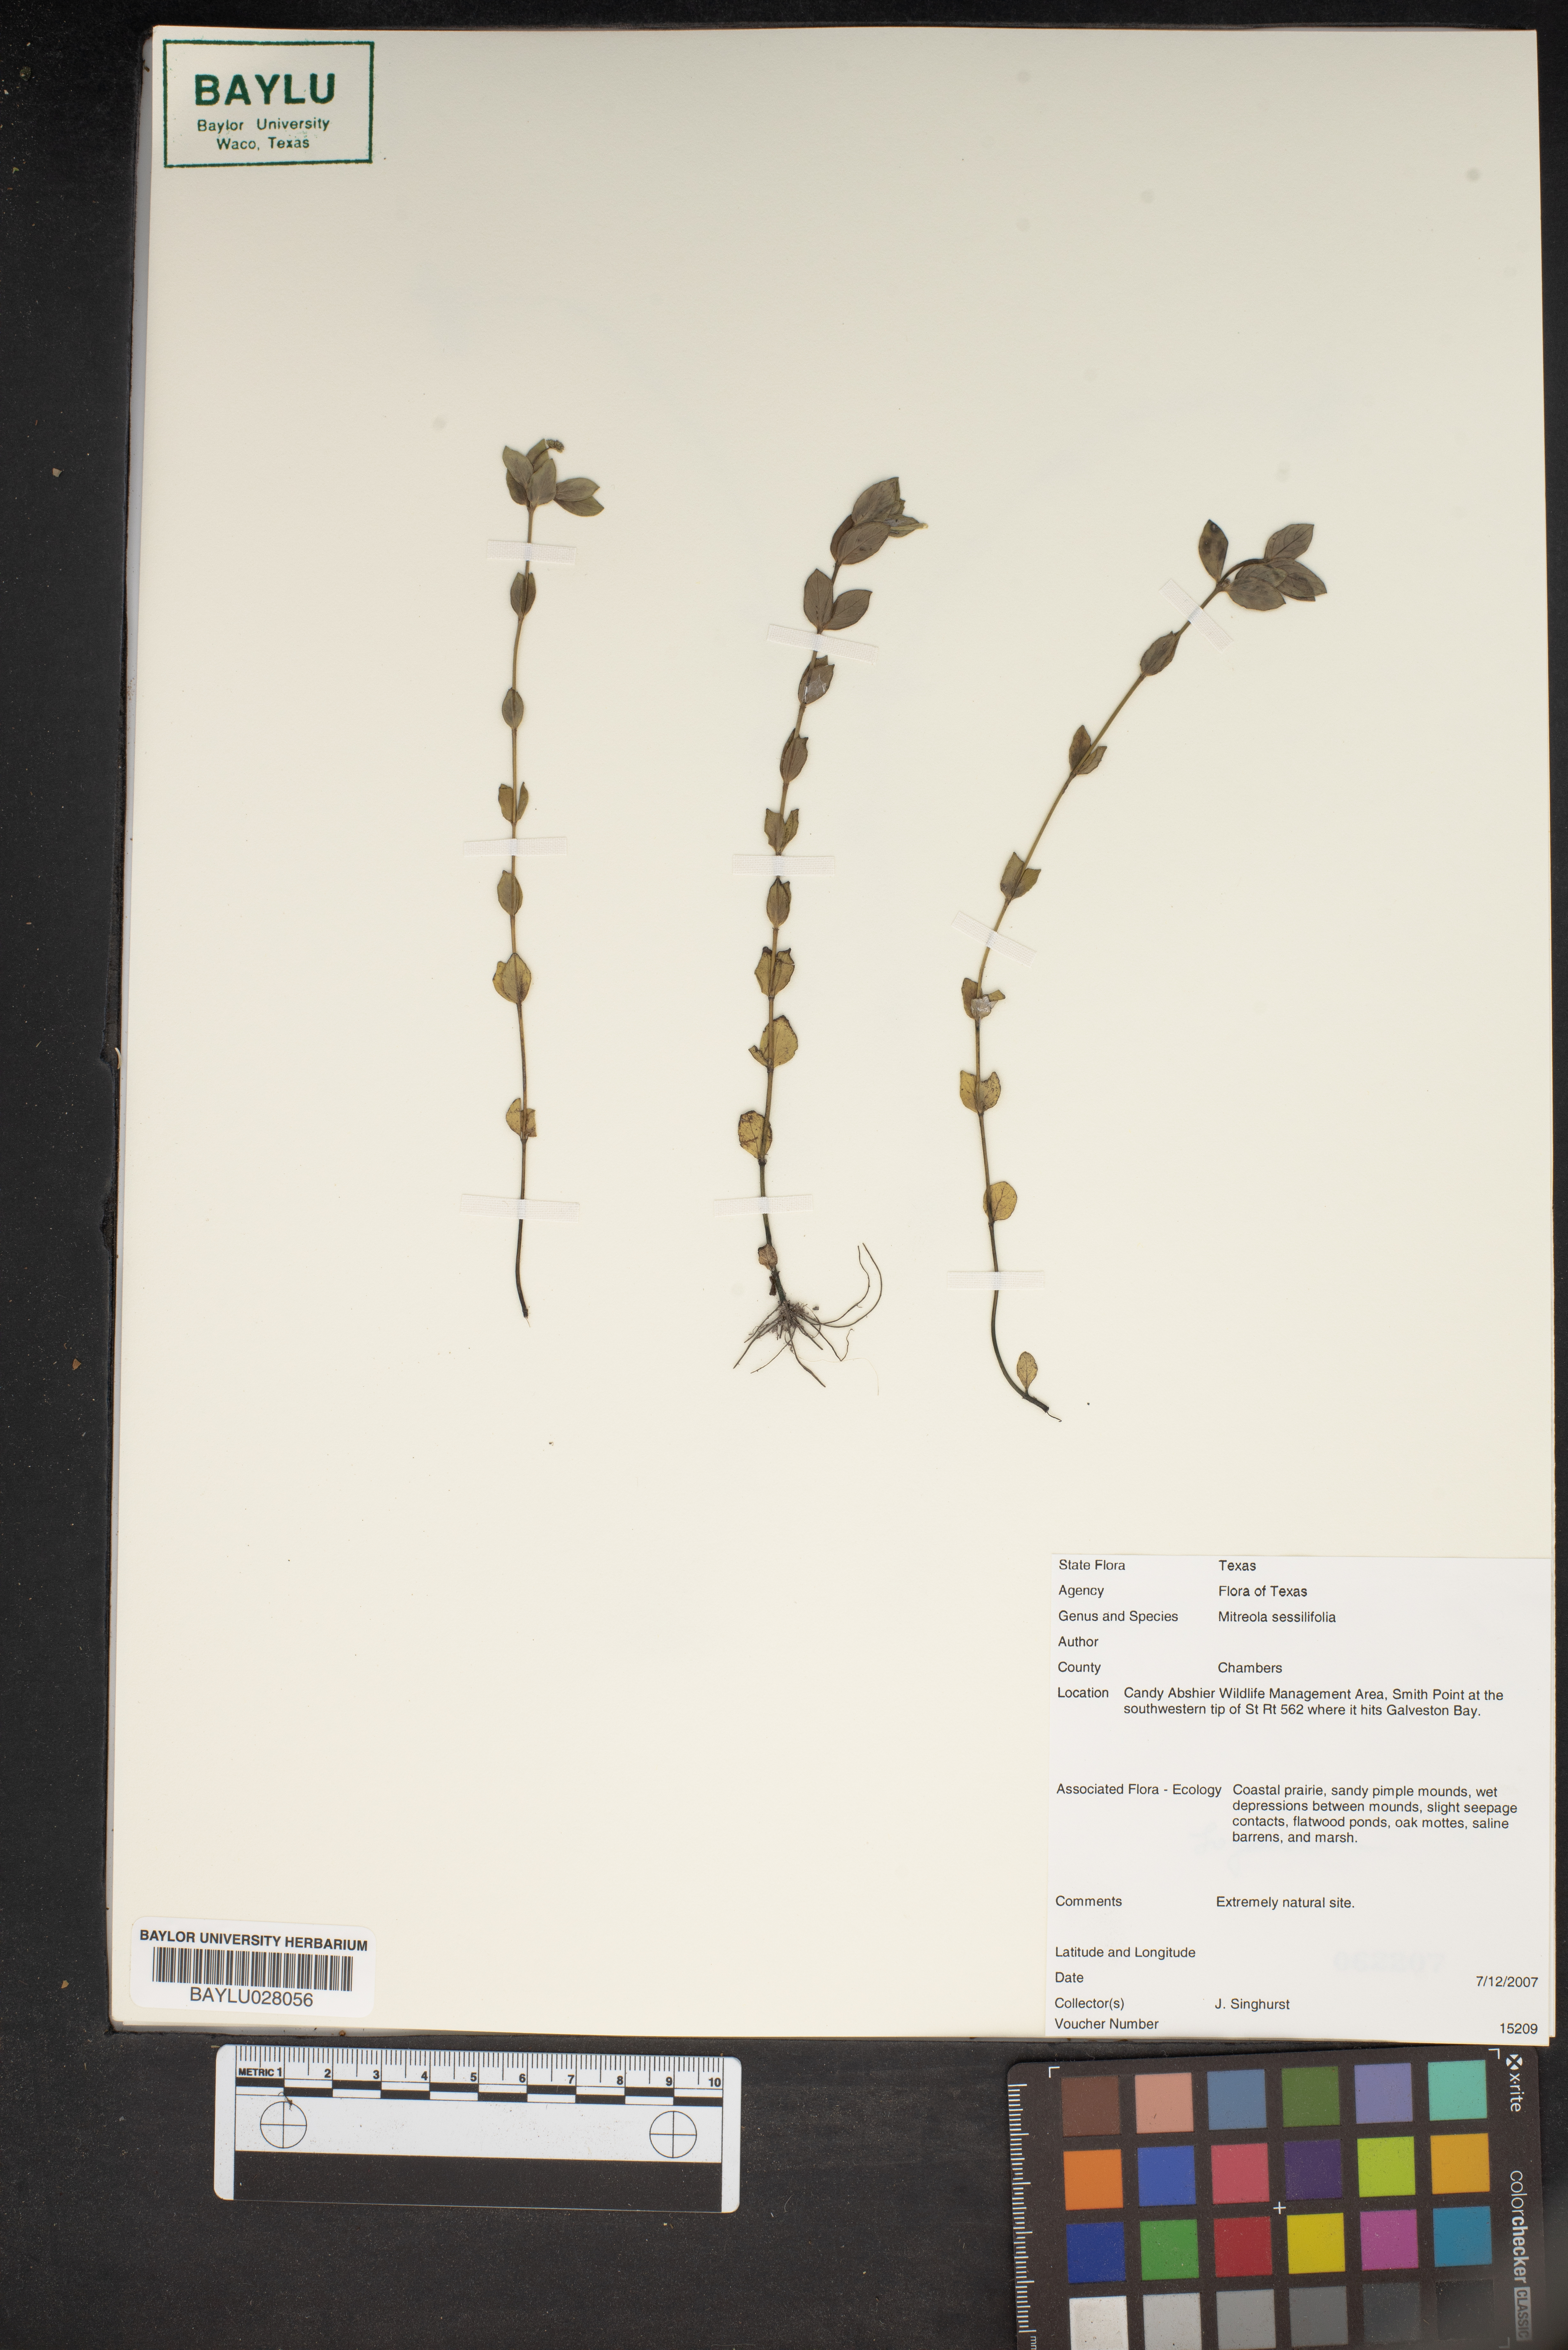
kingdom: Plantae
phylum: Tracheophyta
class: Magnoliopsida
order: Gentianales
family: Loganiaceae
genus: Mitreola
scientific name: Mitreola sessilifolia
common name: Swamp hornpod
